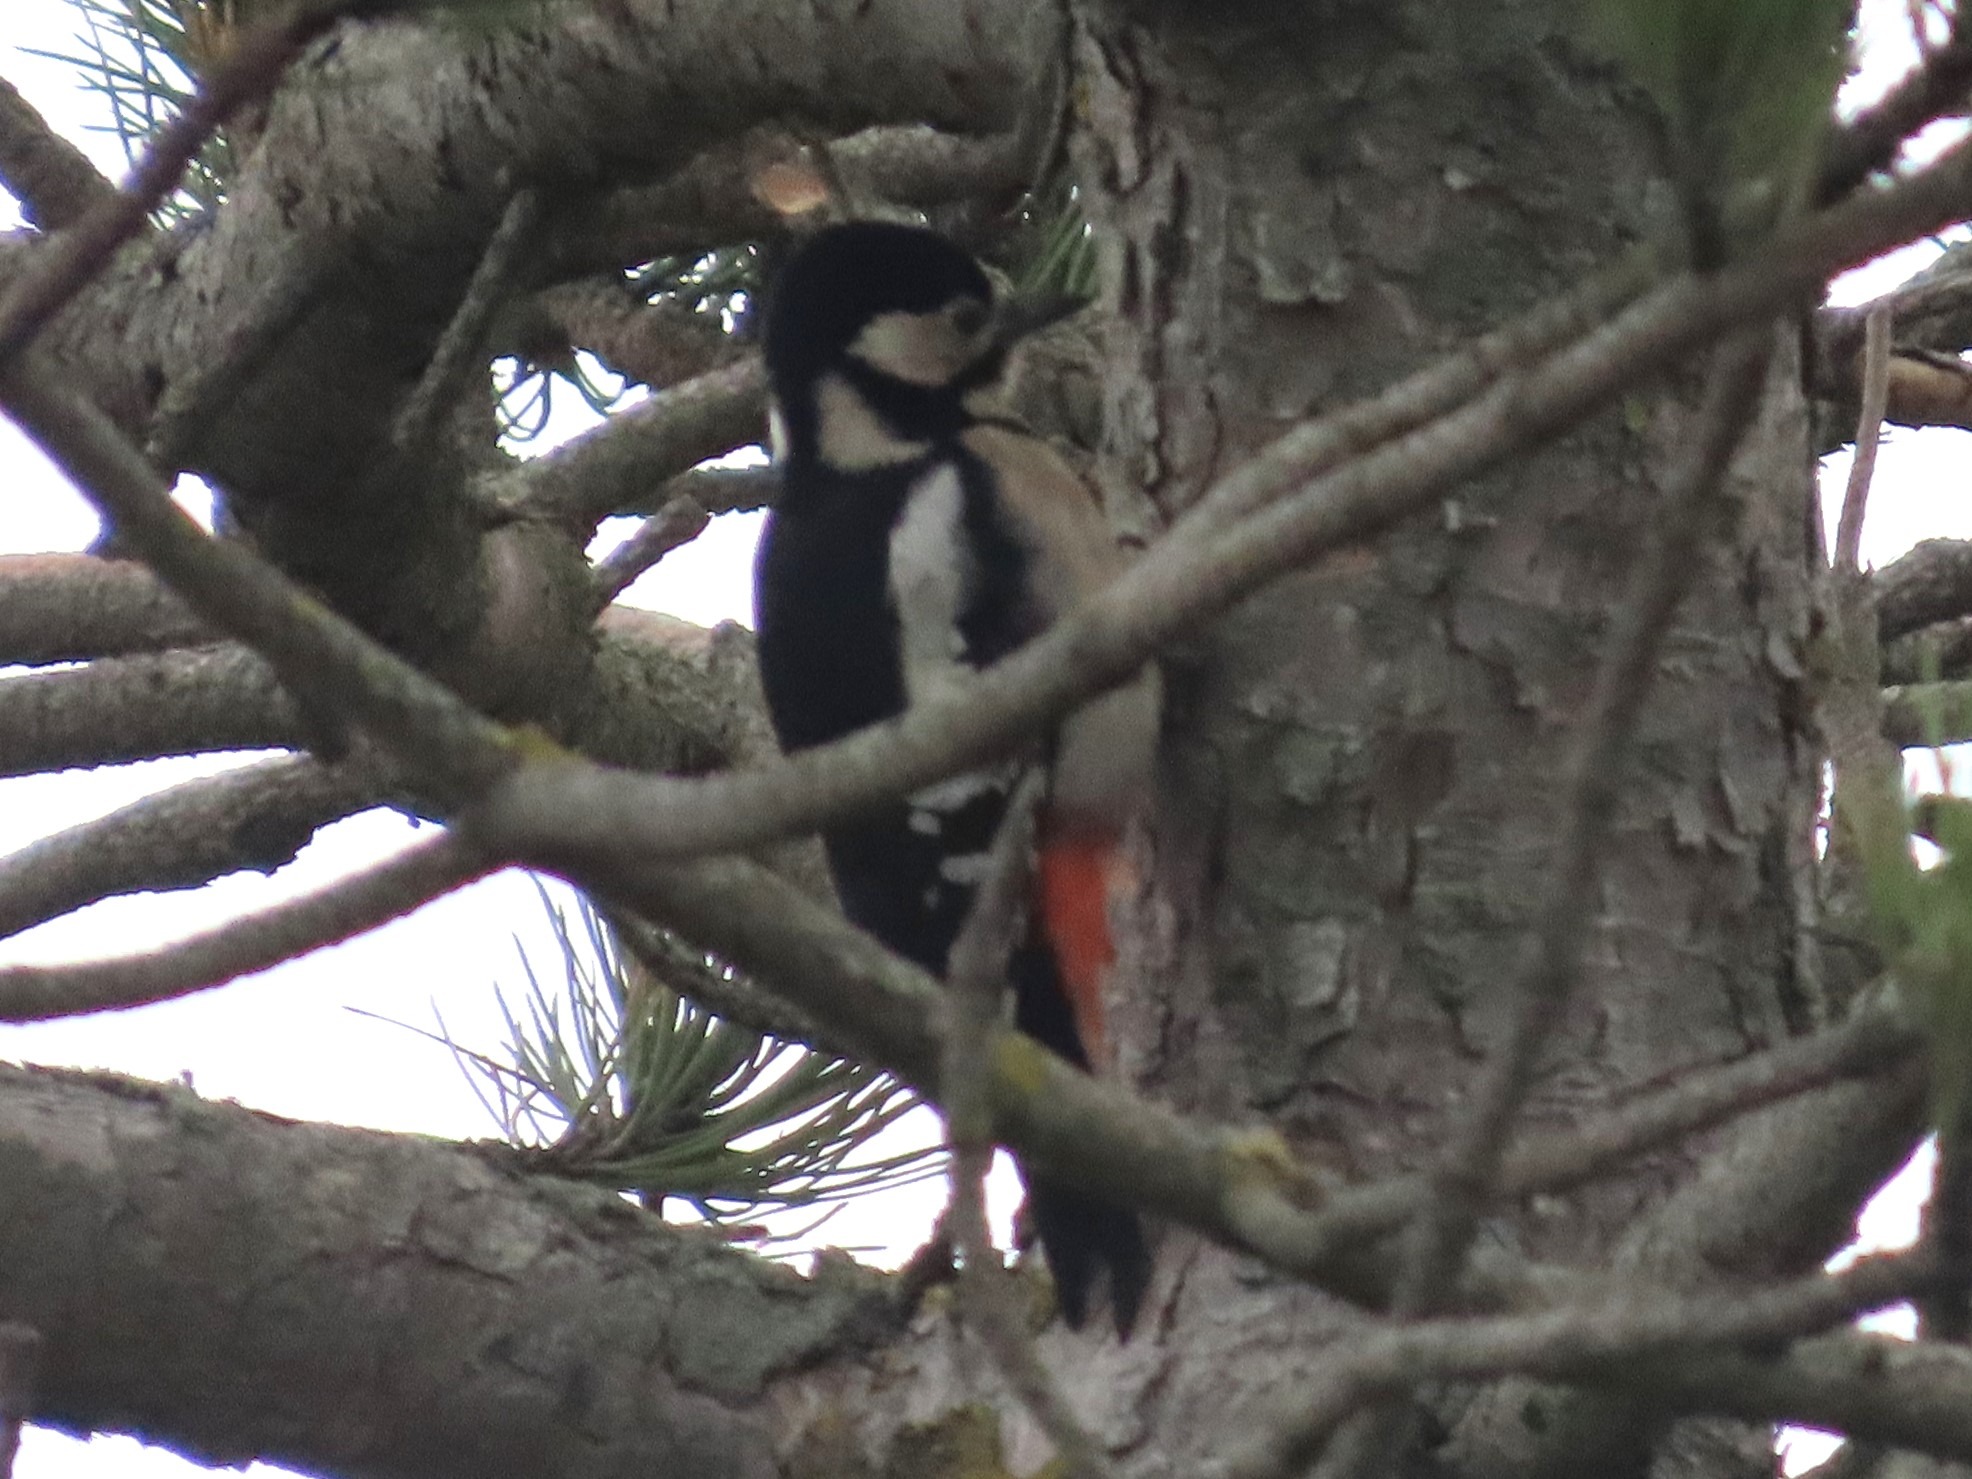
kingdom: Animalia
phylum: Chordata
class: Aves
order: Piciformes
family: Picidae
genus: Dendrocopos
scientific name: Dendrocopos major
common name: Stor flagspætte
